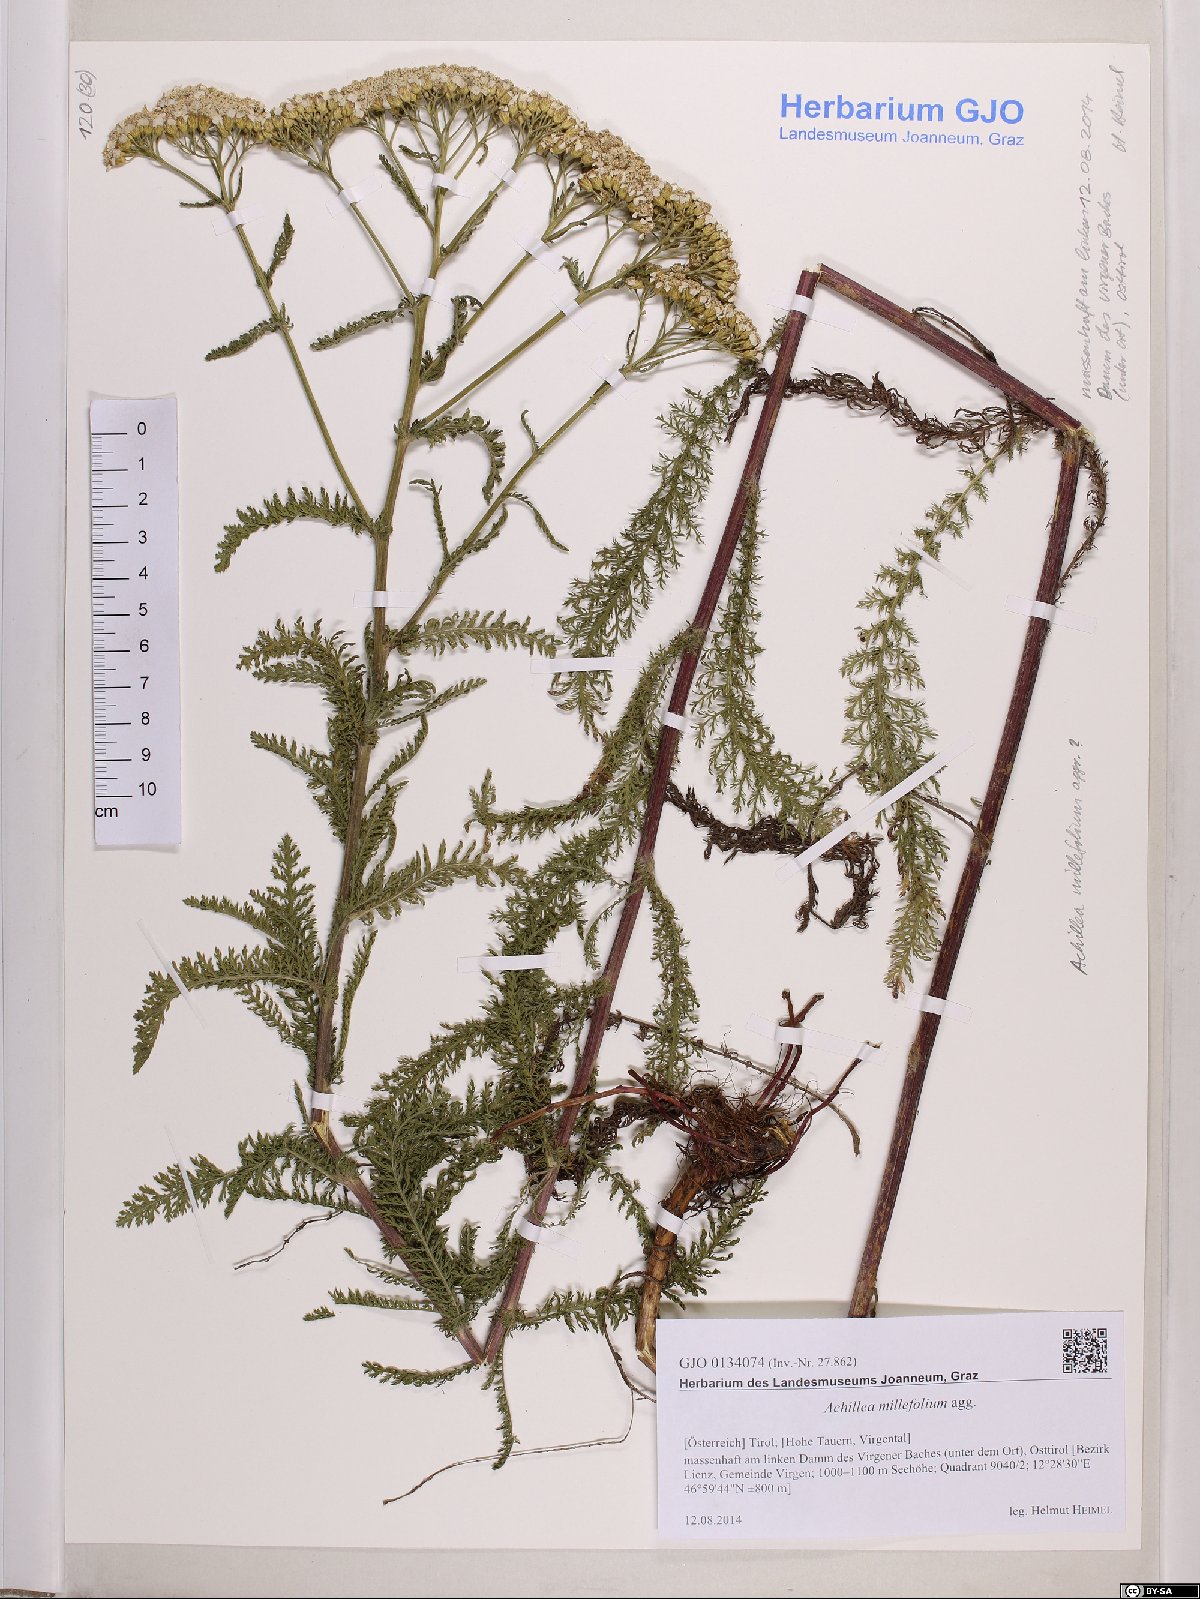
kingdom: Plantae
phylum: Tracheophyta
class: Magnoliopsida
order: Asterales
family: Asteraceae
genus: Achillea
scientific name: Achillea millefolium
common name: Yarrow
